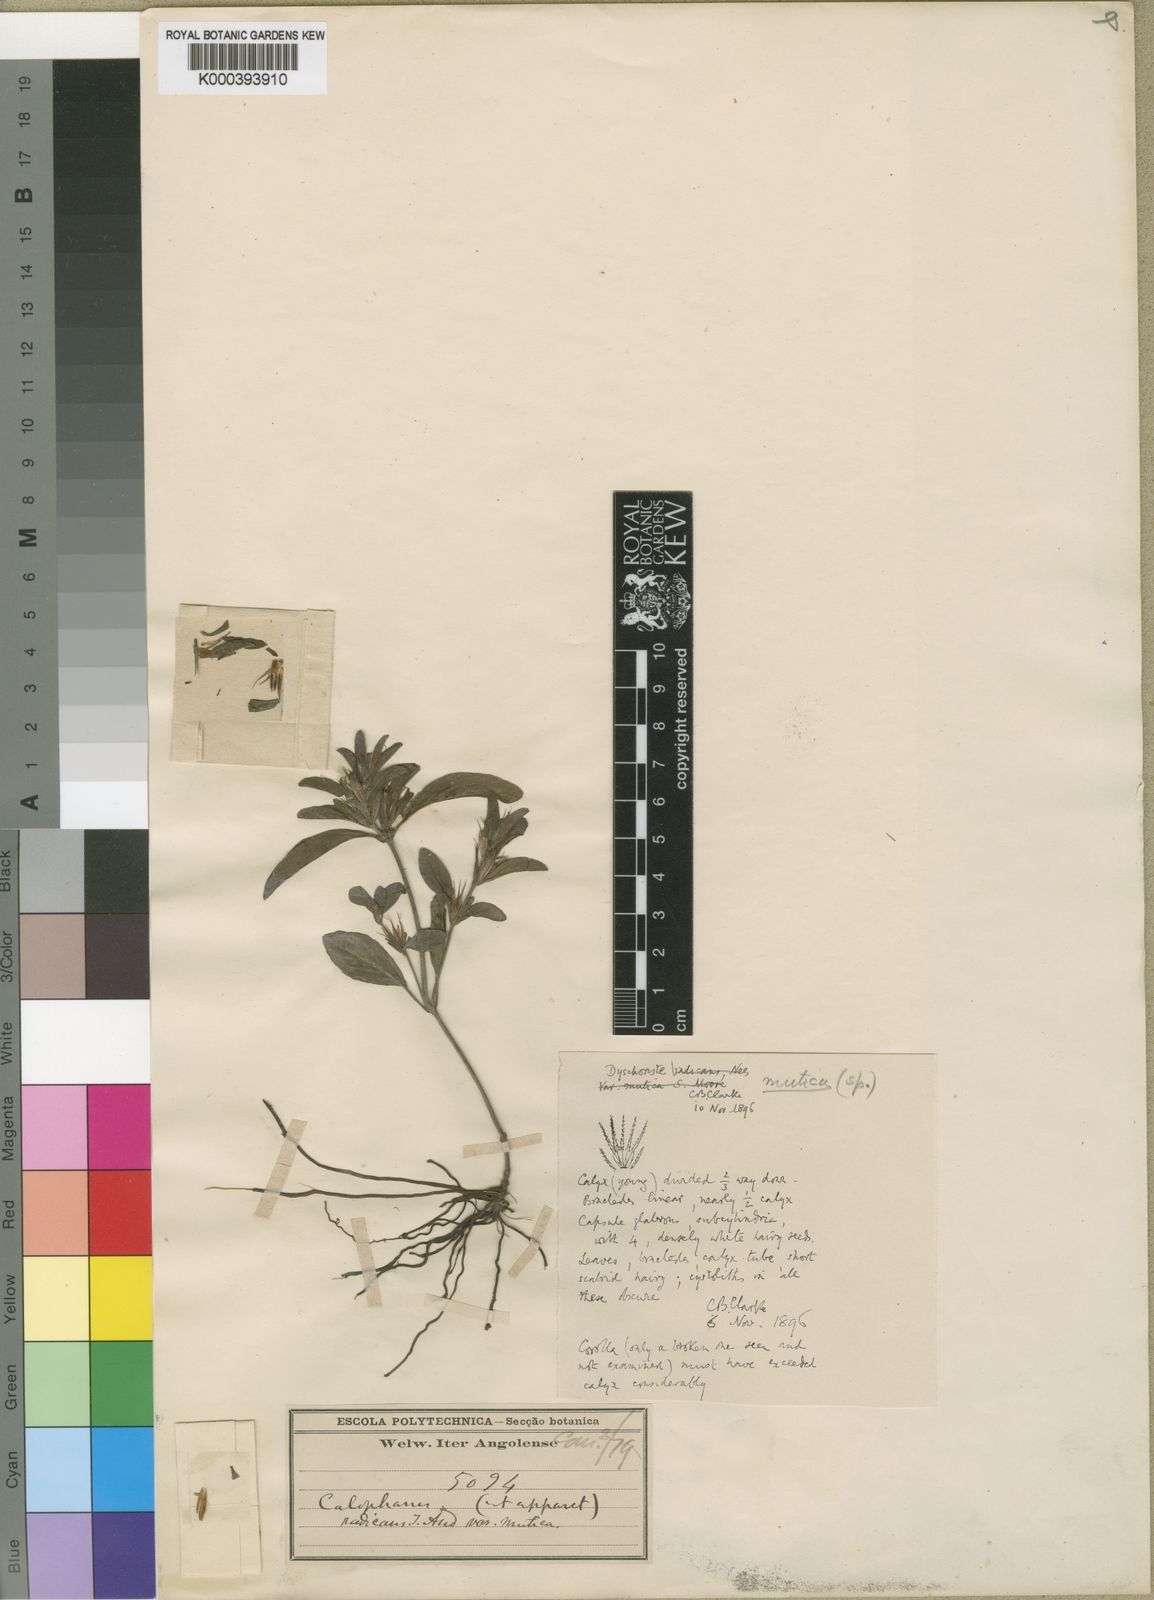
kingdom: Plantae
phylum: Tracheophyta
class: Magnoliopsida
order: Lamiales
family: Acanthaceae
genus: Dyschoriste
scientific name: Dyschoriste mutica
